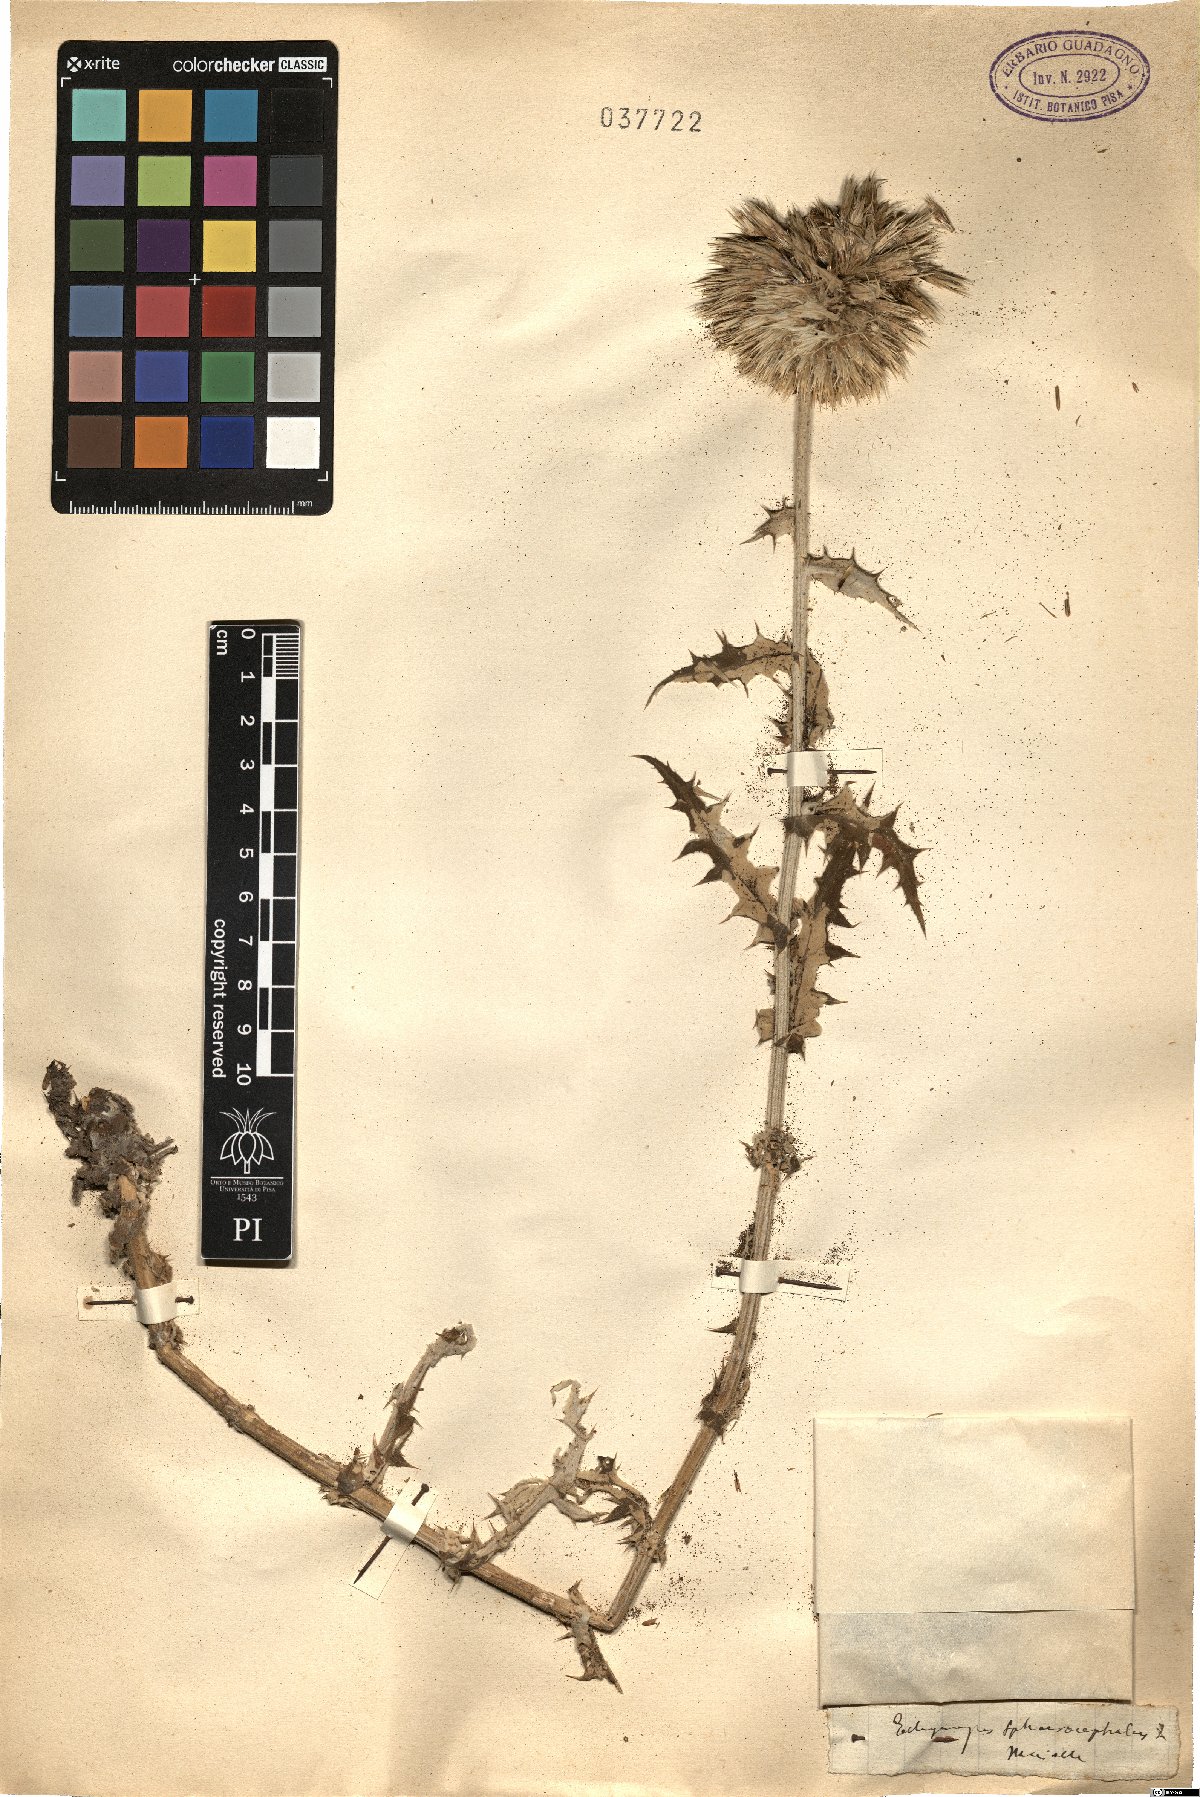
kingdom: Plantae
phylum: Tracheophyta
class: Magnoliopsida
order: Asterales
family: Asteraceae
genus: Echinops
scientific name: Echinops sphaerocephalus
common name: Glandular globe-thistle
